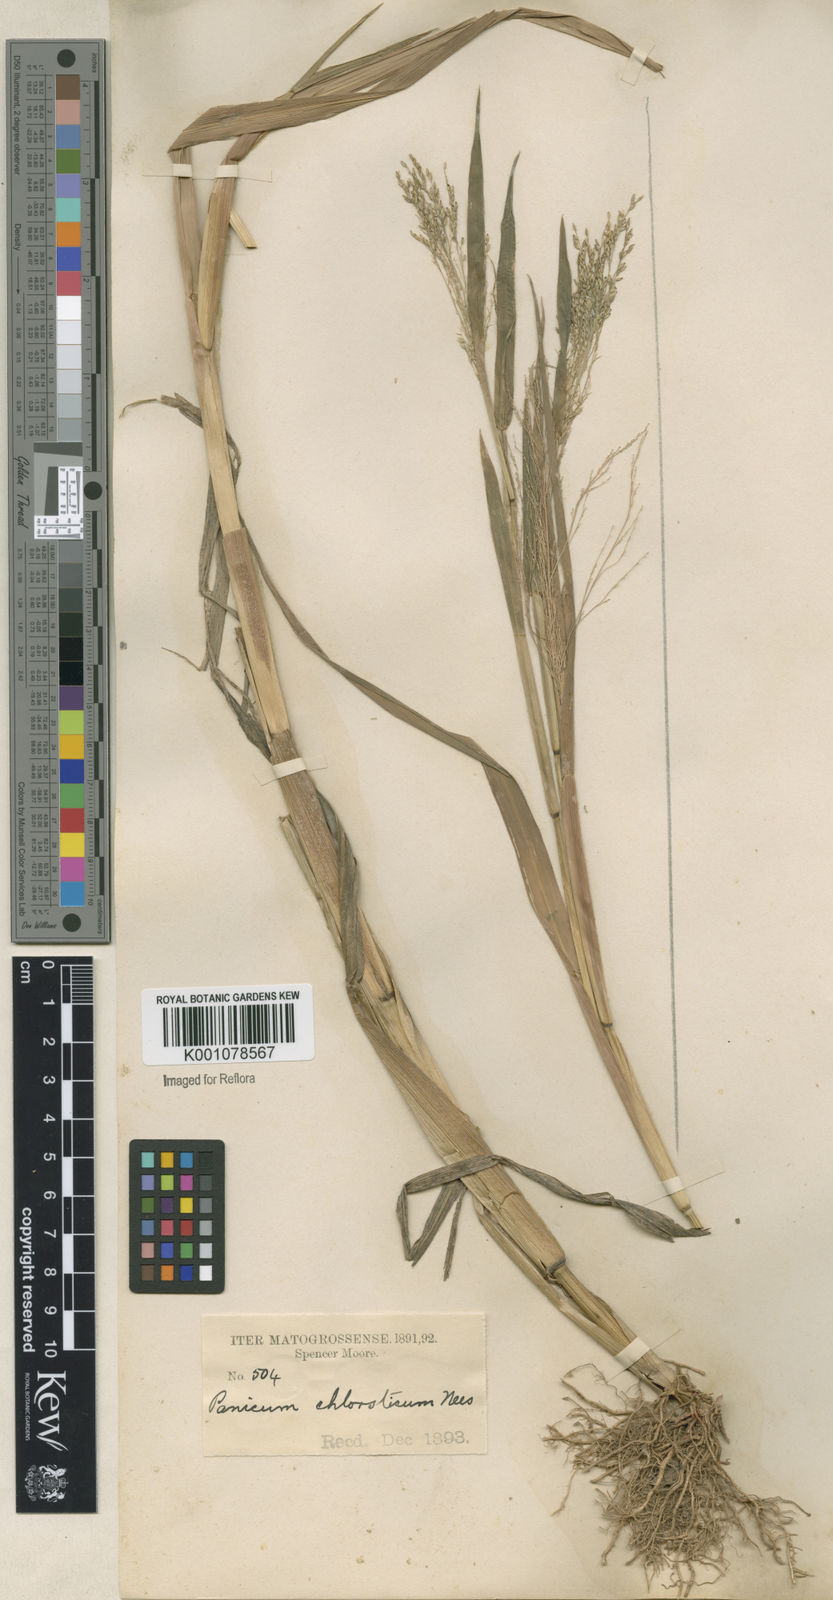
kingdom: Plantae
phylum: Tracheophyta
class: Liliopsida
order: Poales
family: Poaceae
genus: Panicum
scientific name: Panicum dichotomiflorum
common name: Autumn millet
